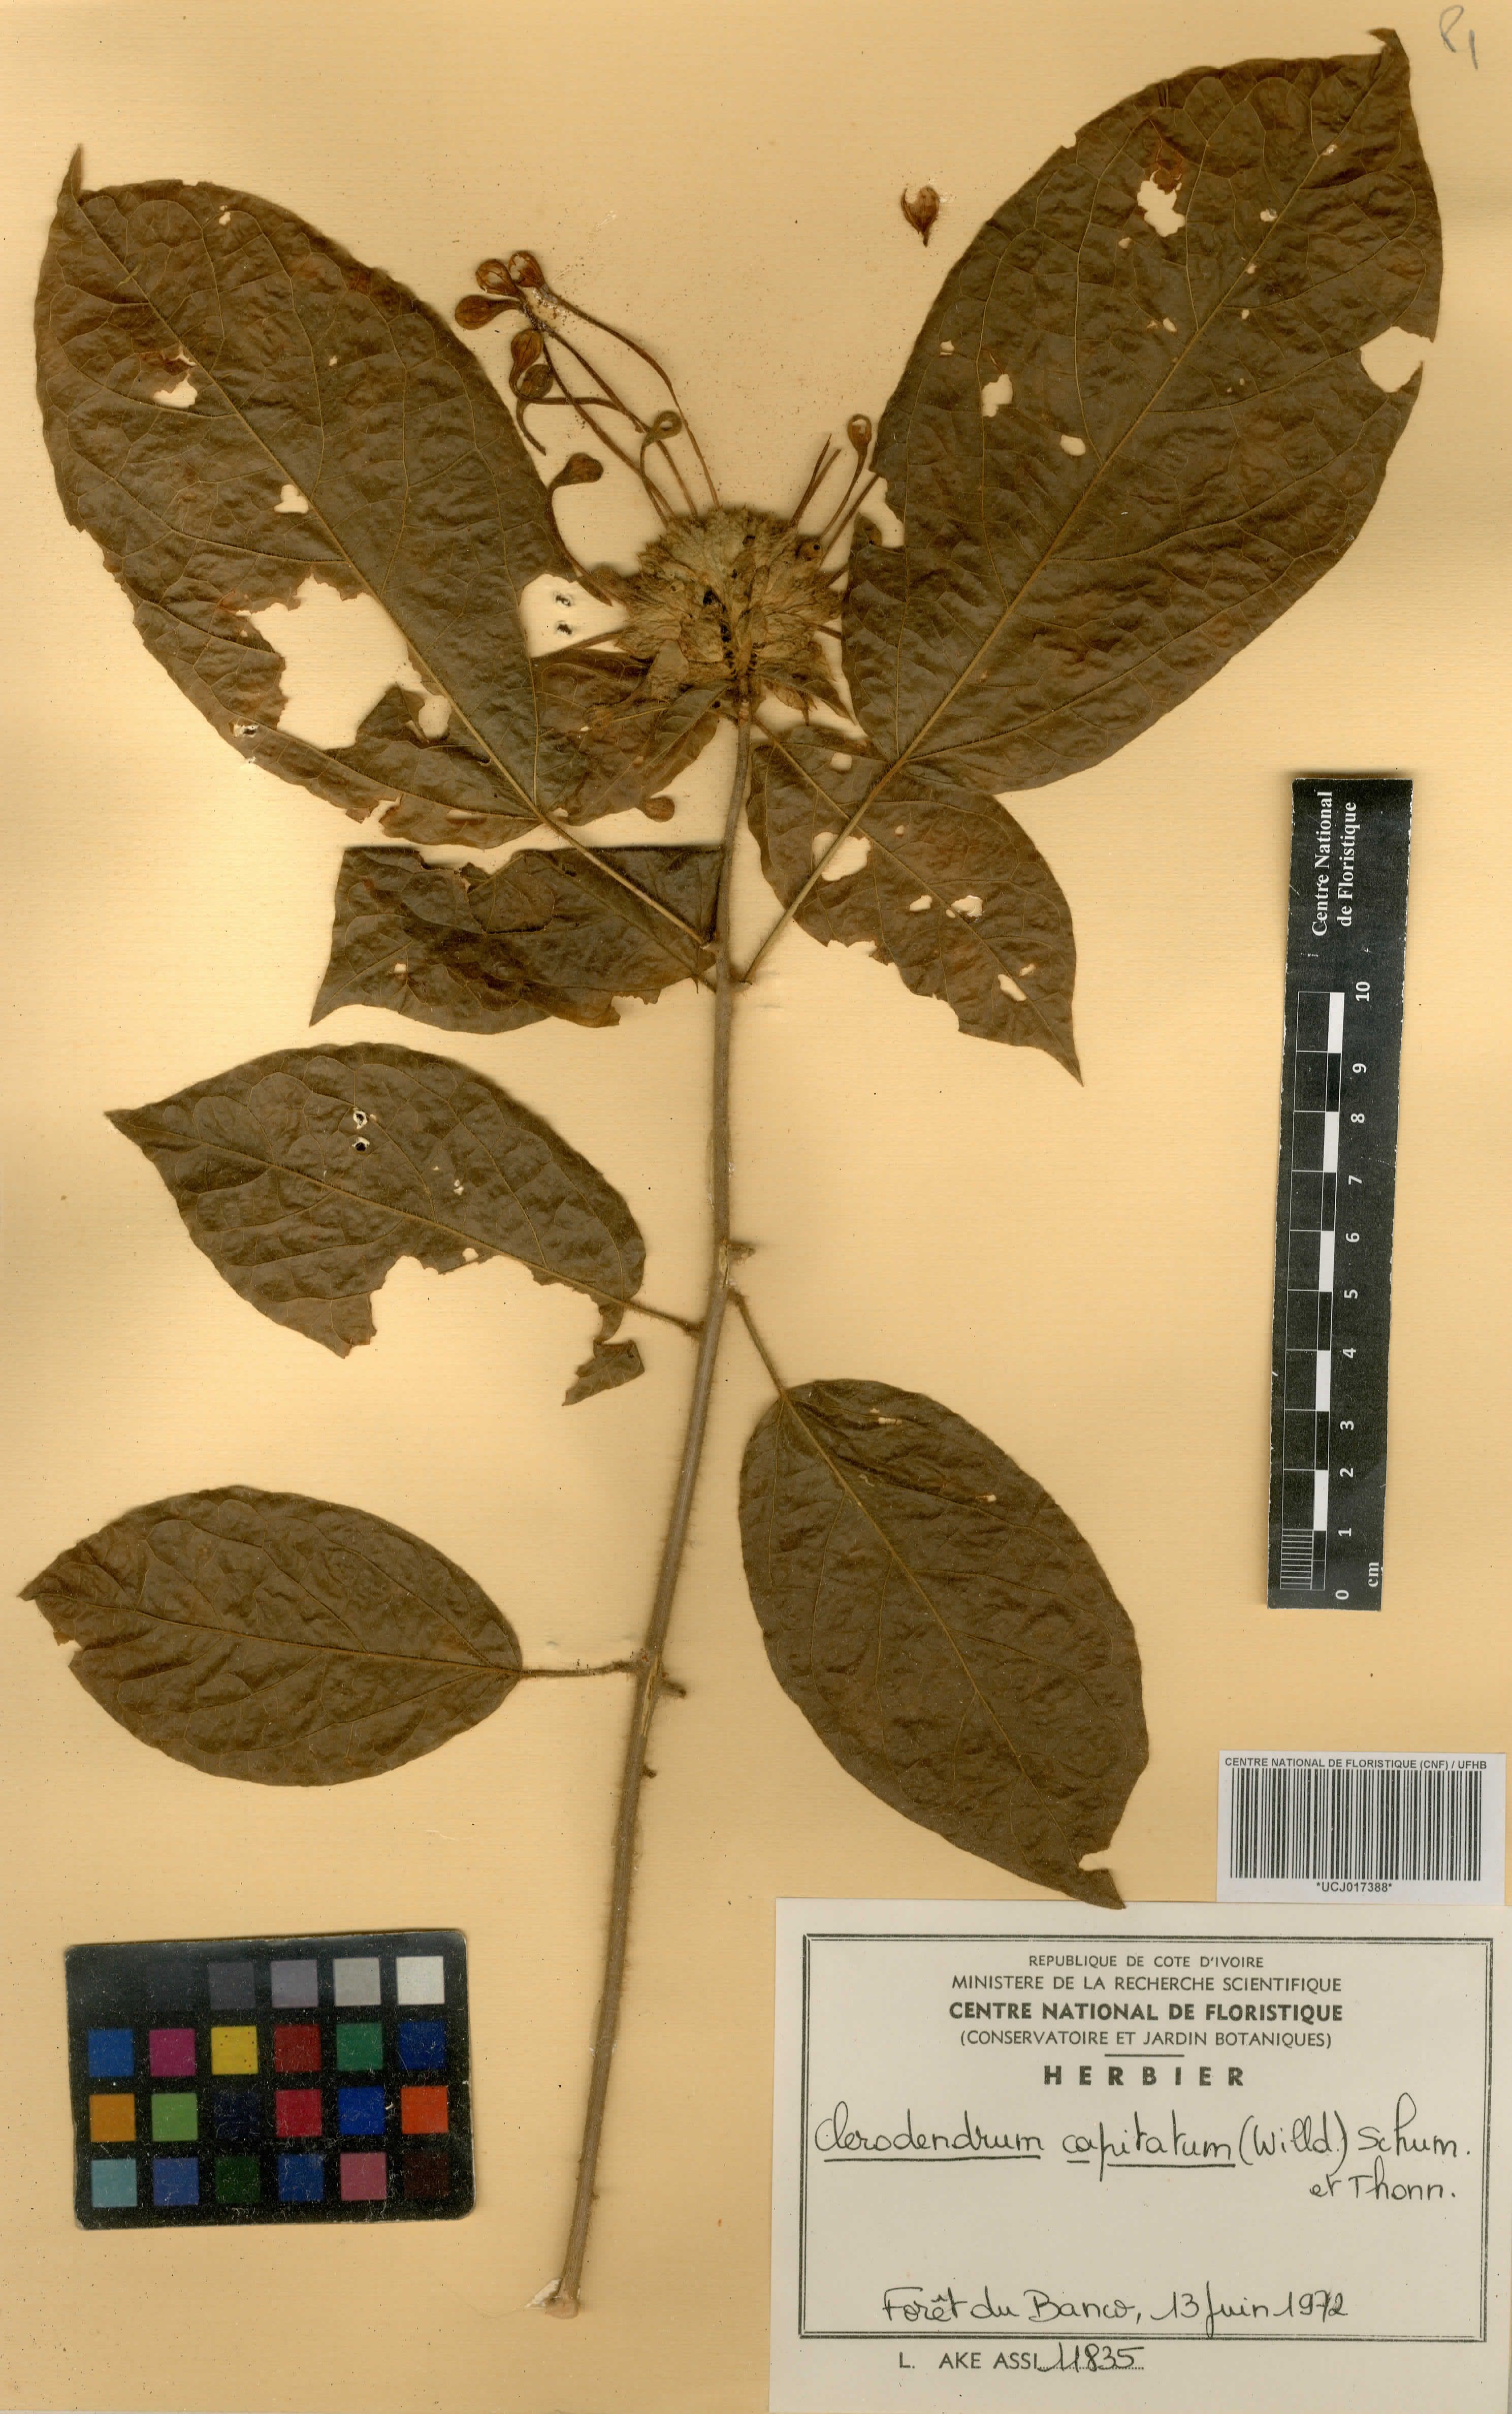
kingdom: Plantae
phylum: Tracheophyta
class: Magnoliopsida
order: Lamiales
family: Lamiaceae
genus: Clerodendrum
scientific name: Clerodendrum capitatum
